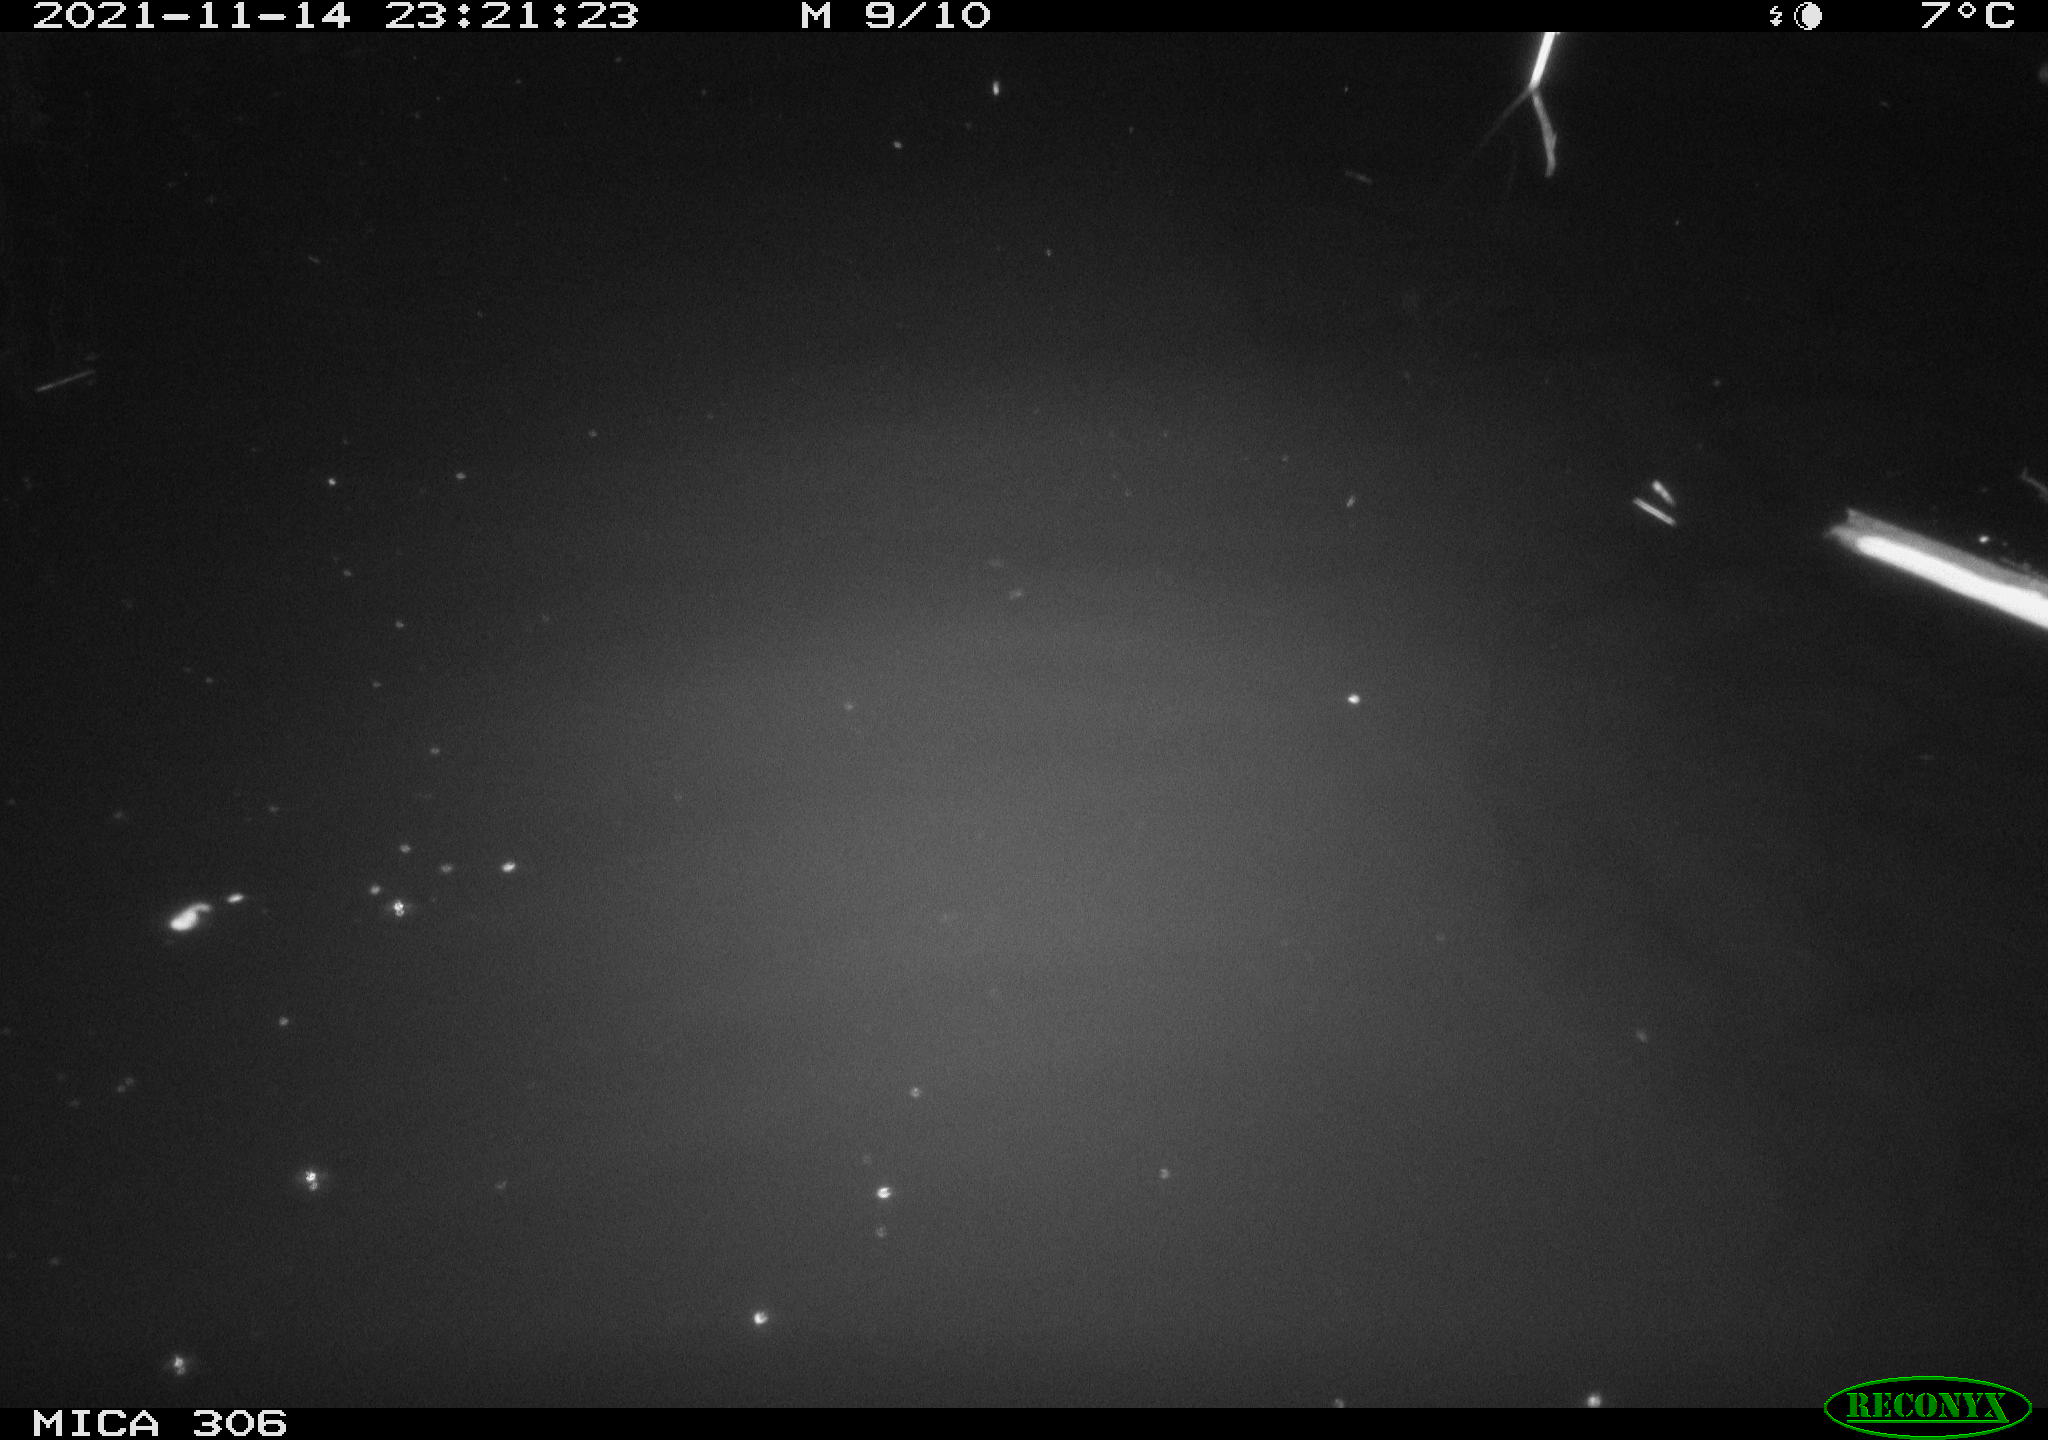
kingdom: Animalia
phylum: Chordata
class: Mammalia
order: Rodentia
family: Cricetidae
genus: Ondatra
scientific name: Ondatra zibethicus
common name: Muskrat
